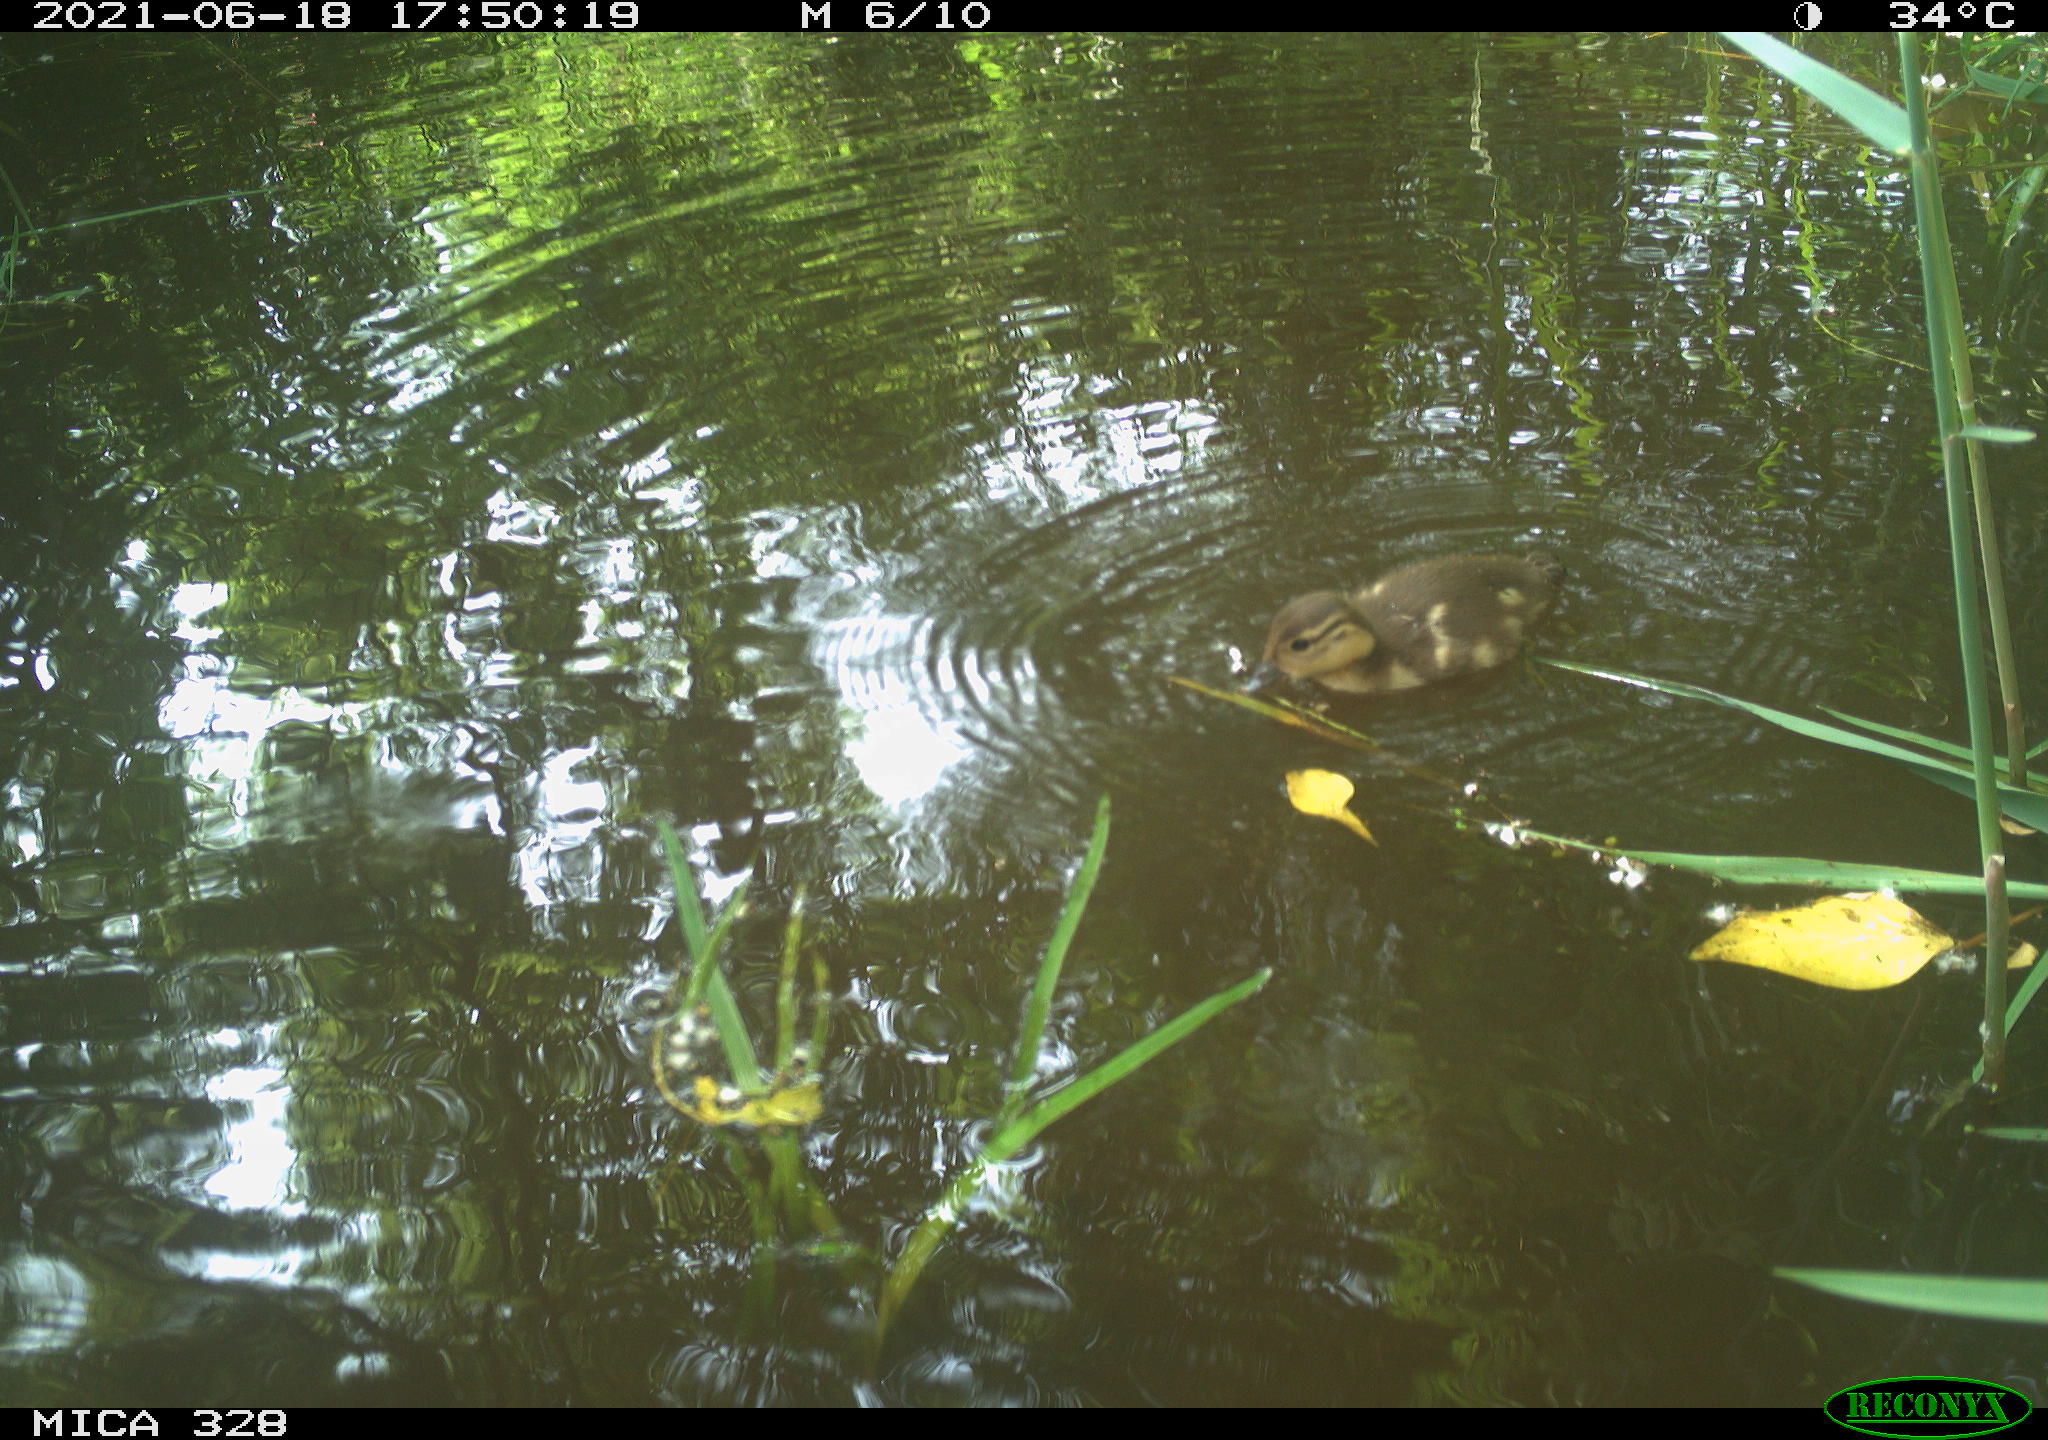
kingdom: Animalia
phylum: Chordata
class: Aves
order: Anseriformes
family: Anatidae
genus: Aix
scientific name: Aix galericulata
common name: Mandarin duck
